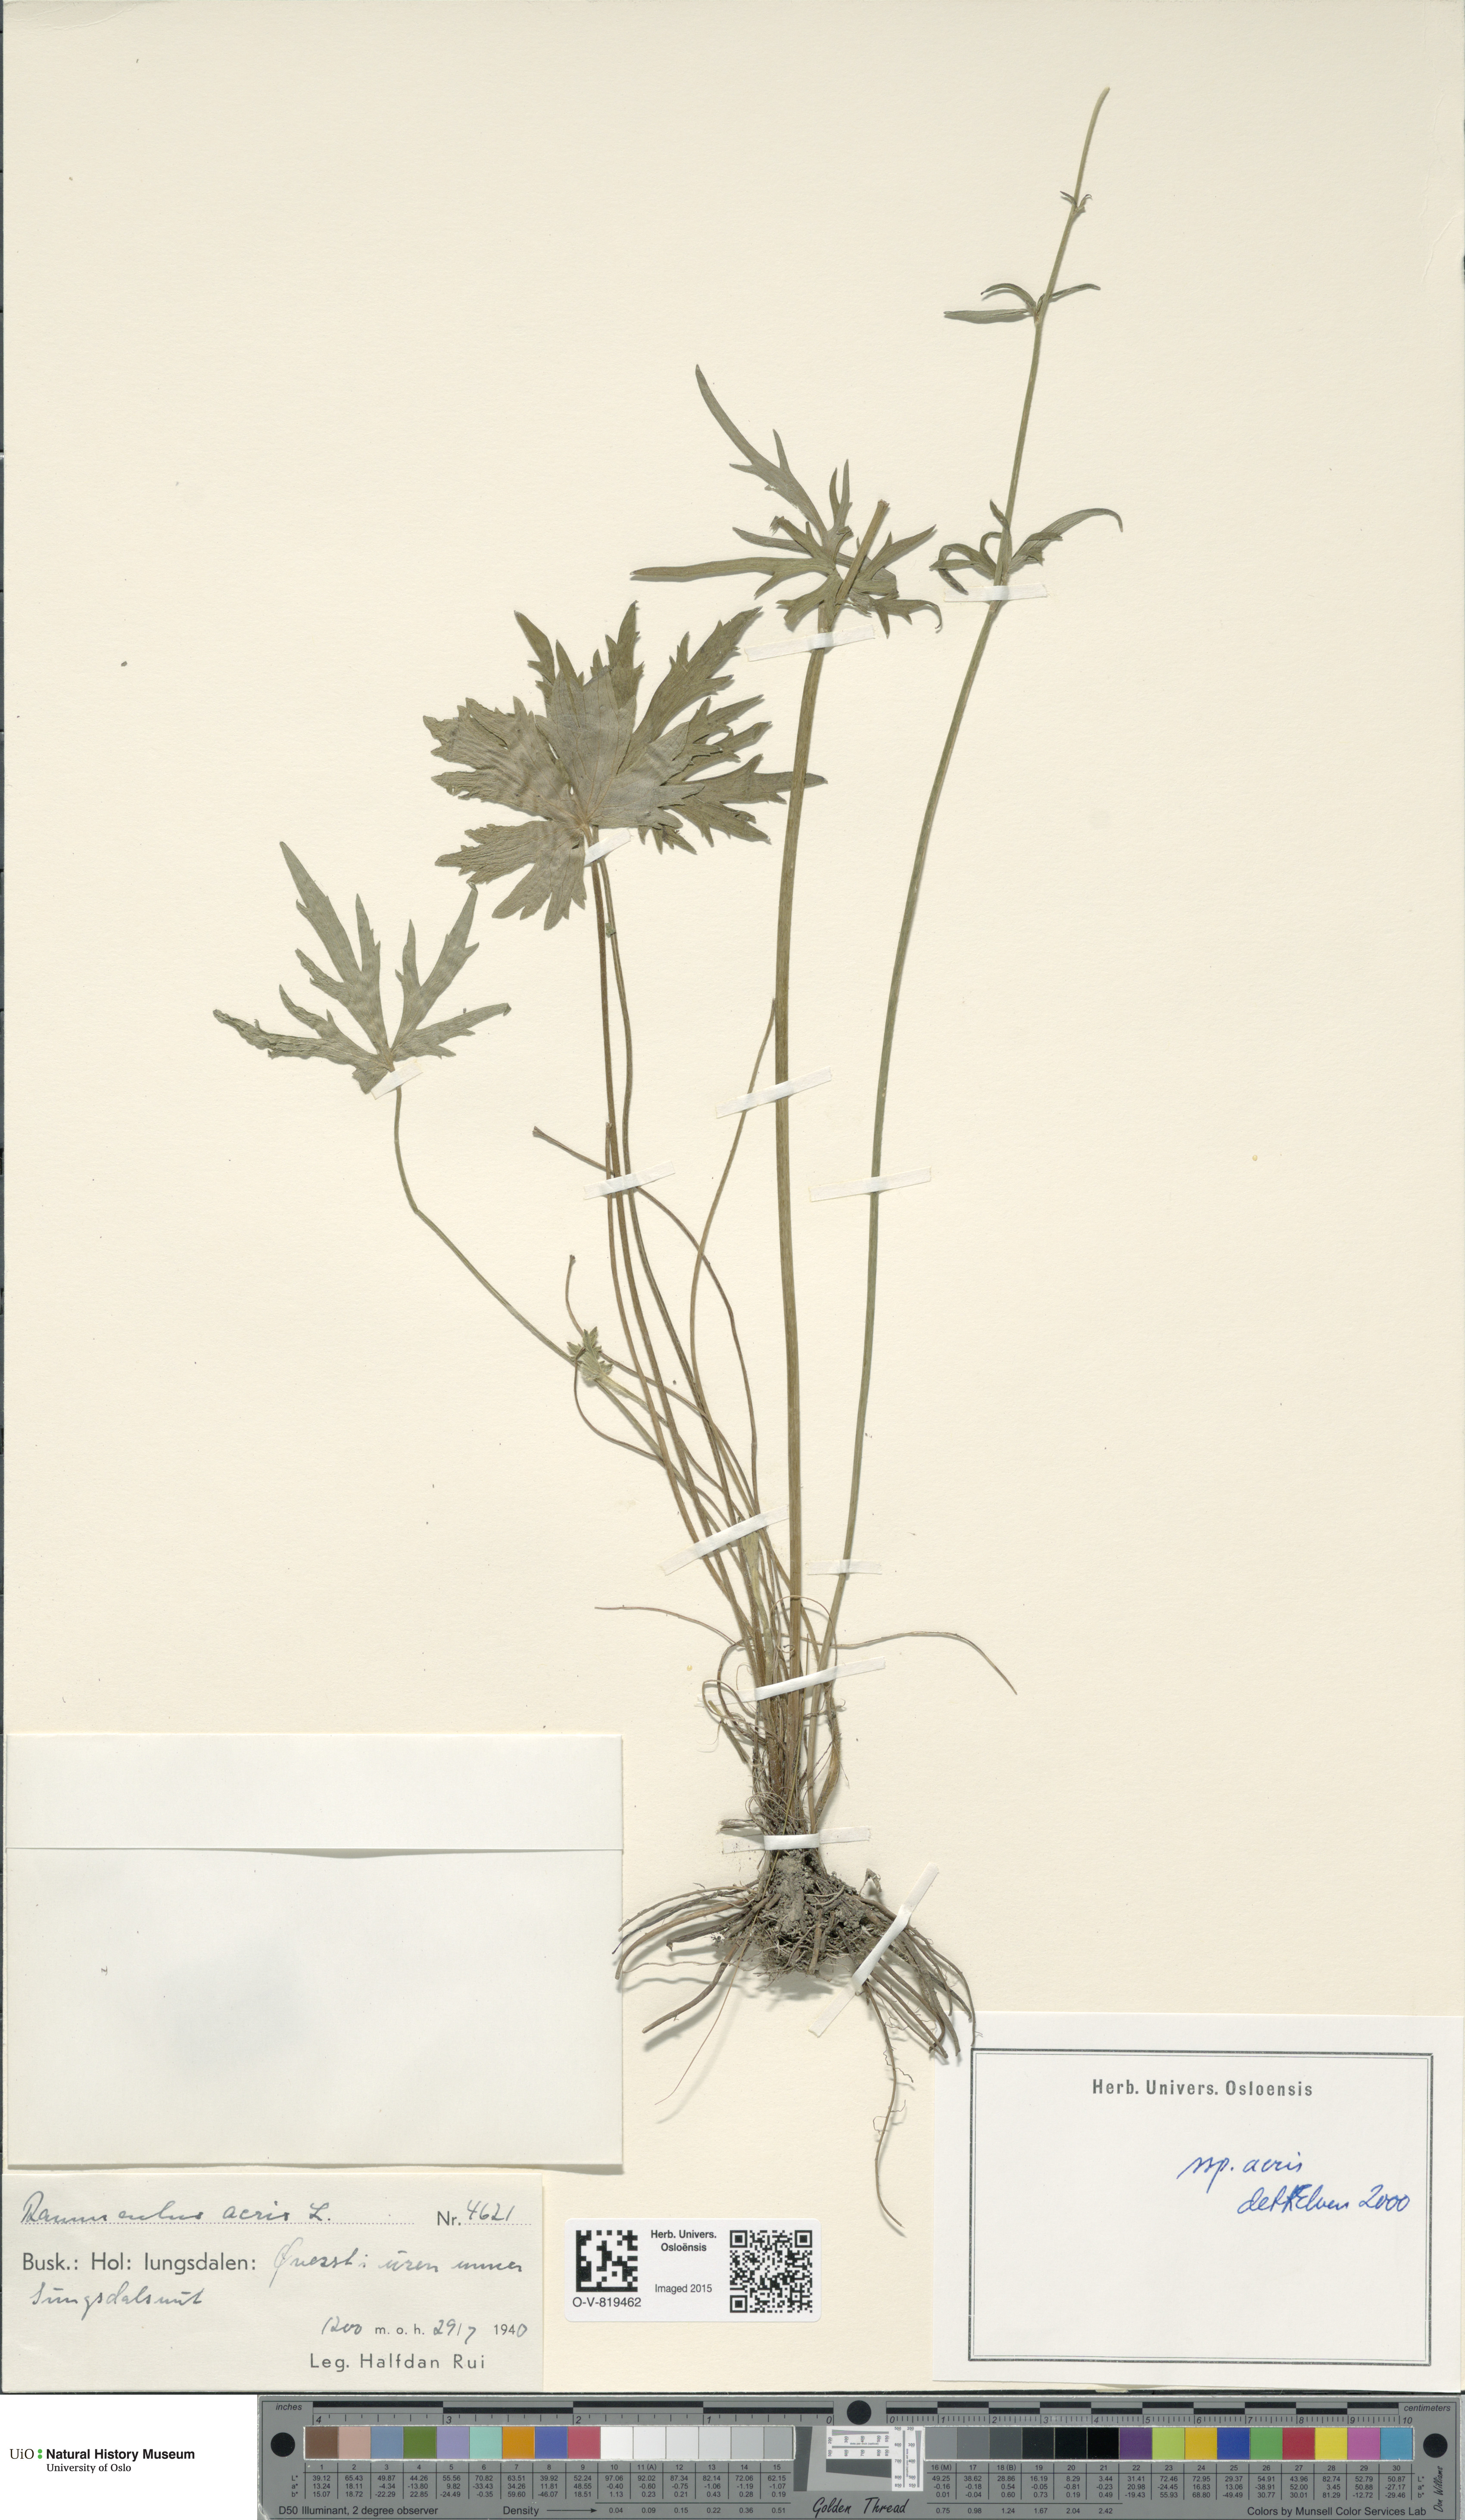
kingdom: Plantae
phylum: Tracheophyta
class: Magnoliopsida
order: Ranunculales
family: Ranunculaceae
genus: Ranunculus
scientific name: Ranunculus acris
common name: Meadow buttercup
